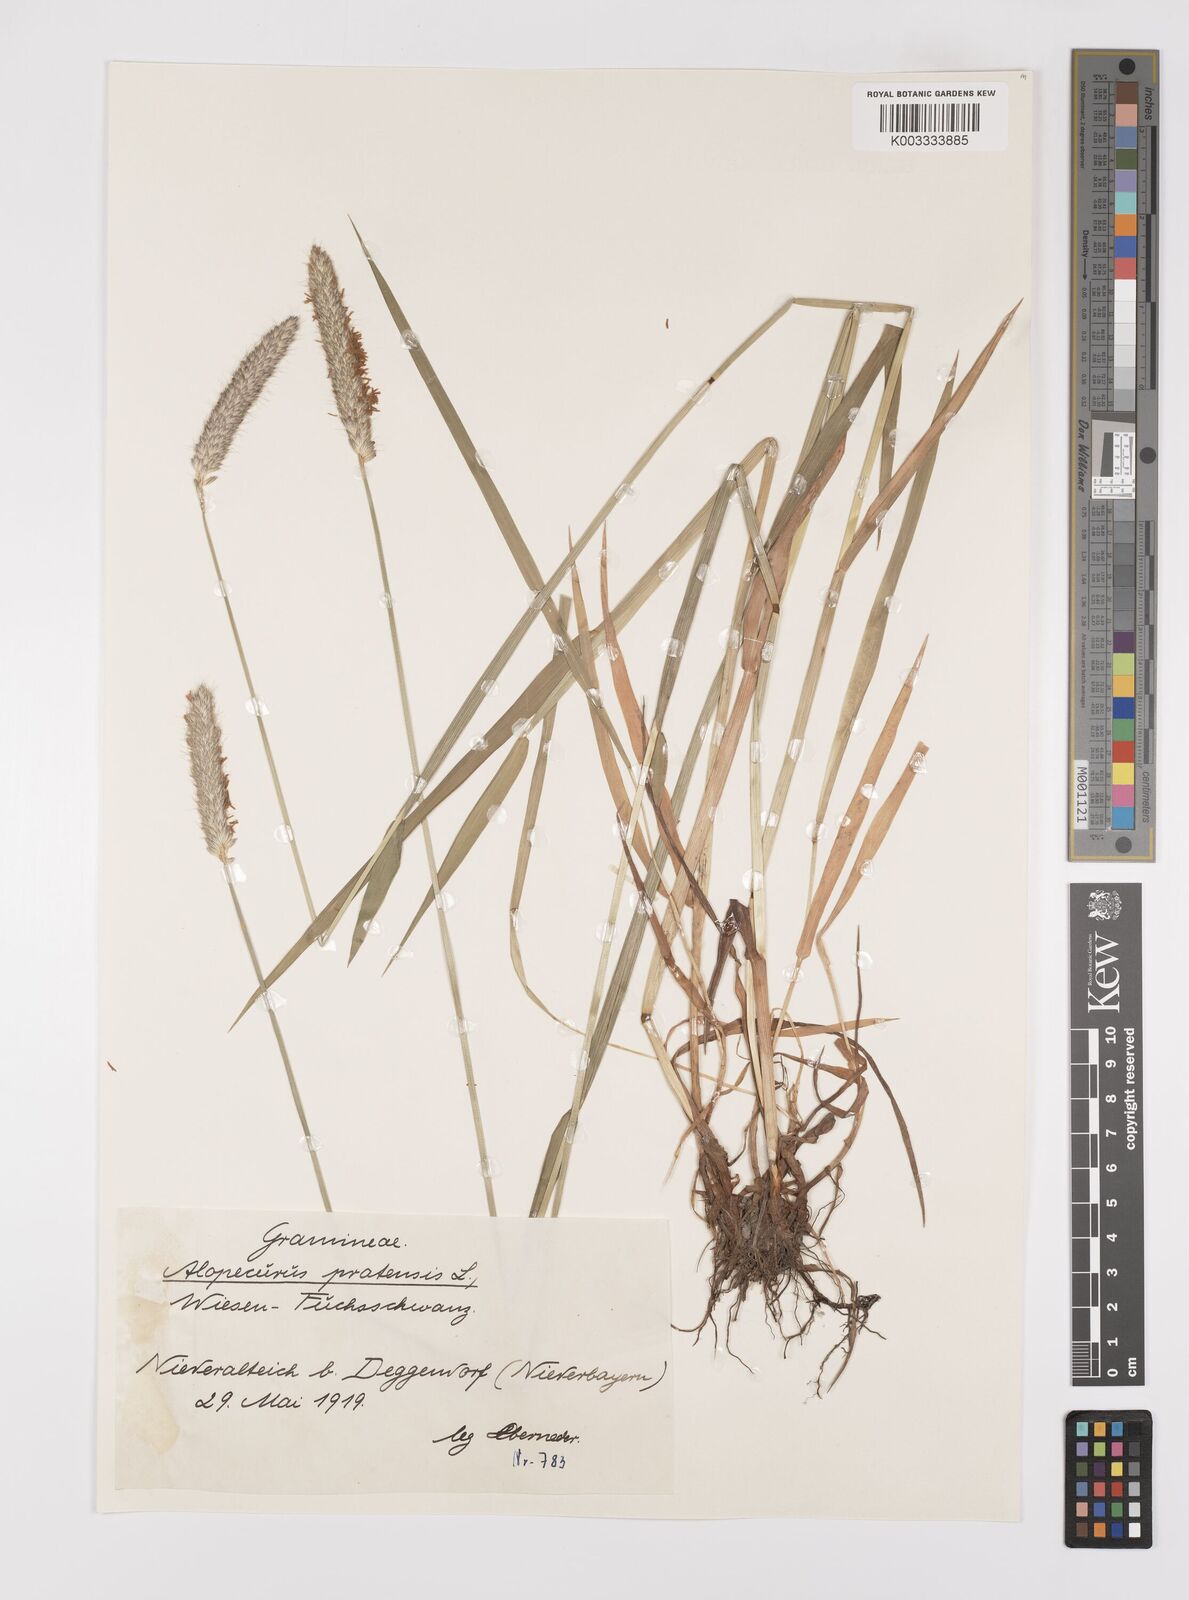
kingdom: Plantae
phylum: Tracheophyta
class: Liliopsida
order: Poales
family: Poaceae
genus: Alopecurus
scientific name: Alopecurus pratensis
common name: Meadow foxtail
